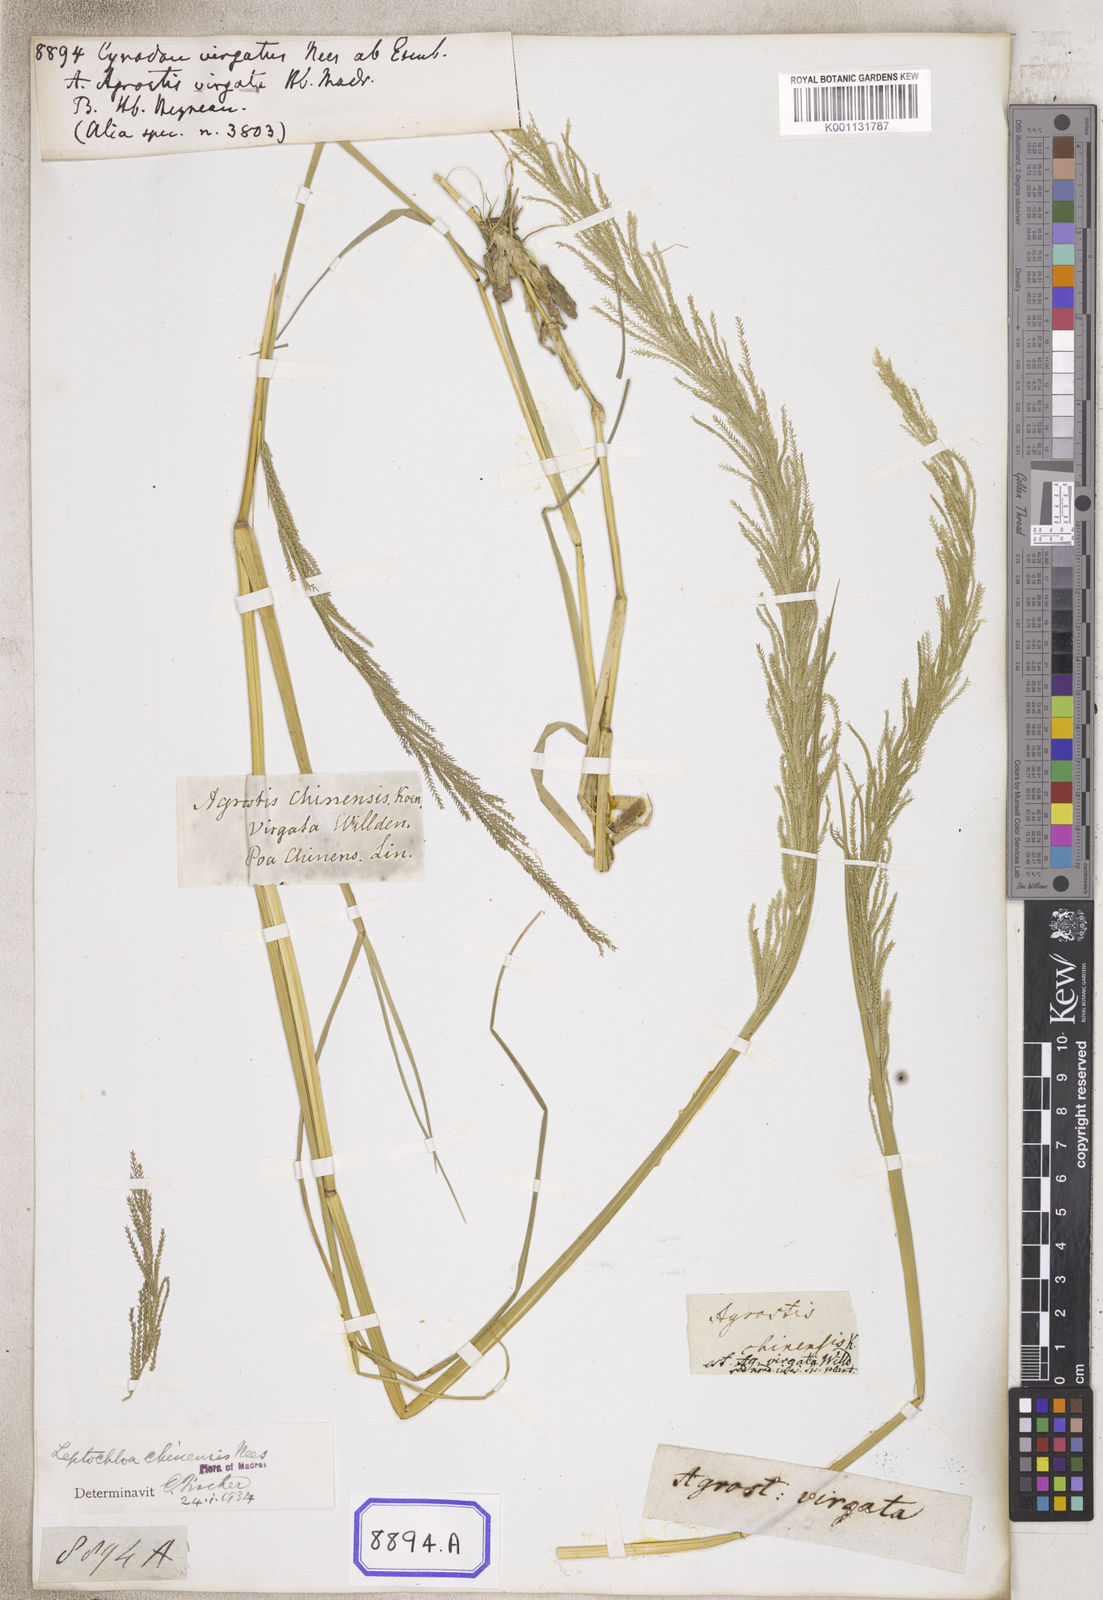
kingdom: Plantae
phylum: Tracheophyta
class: Liliopsida
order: Poales
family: Poaceae
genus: Dinebra
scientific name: Dinebra polystachyos
